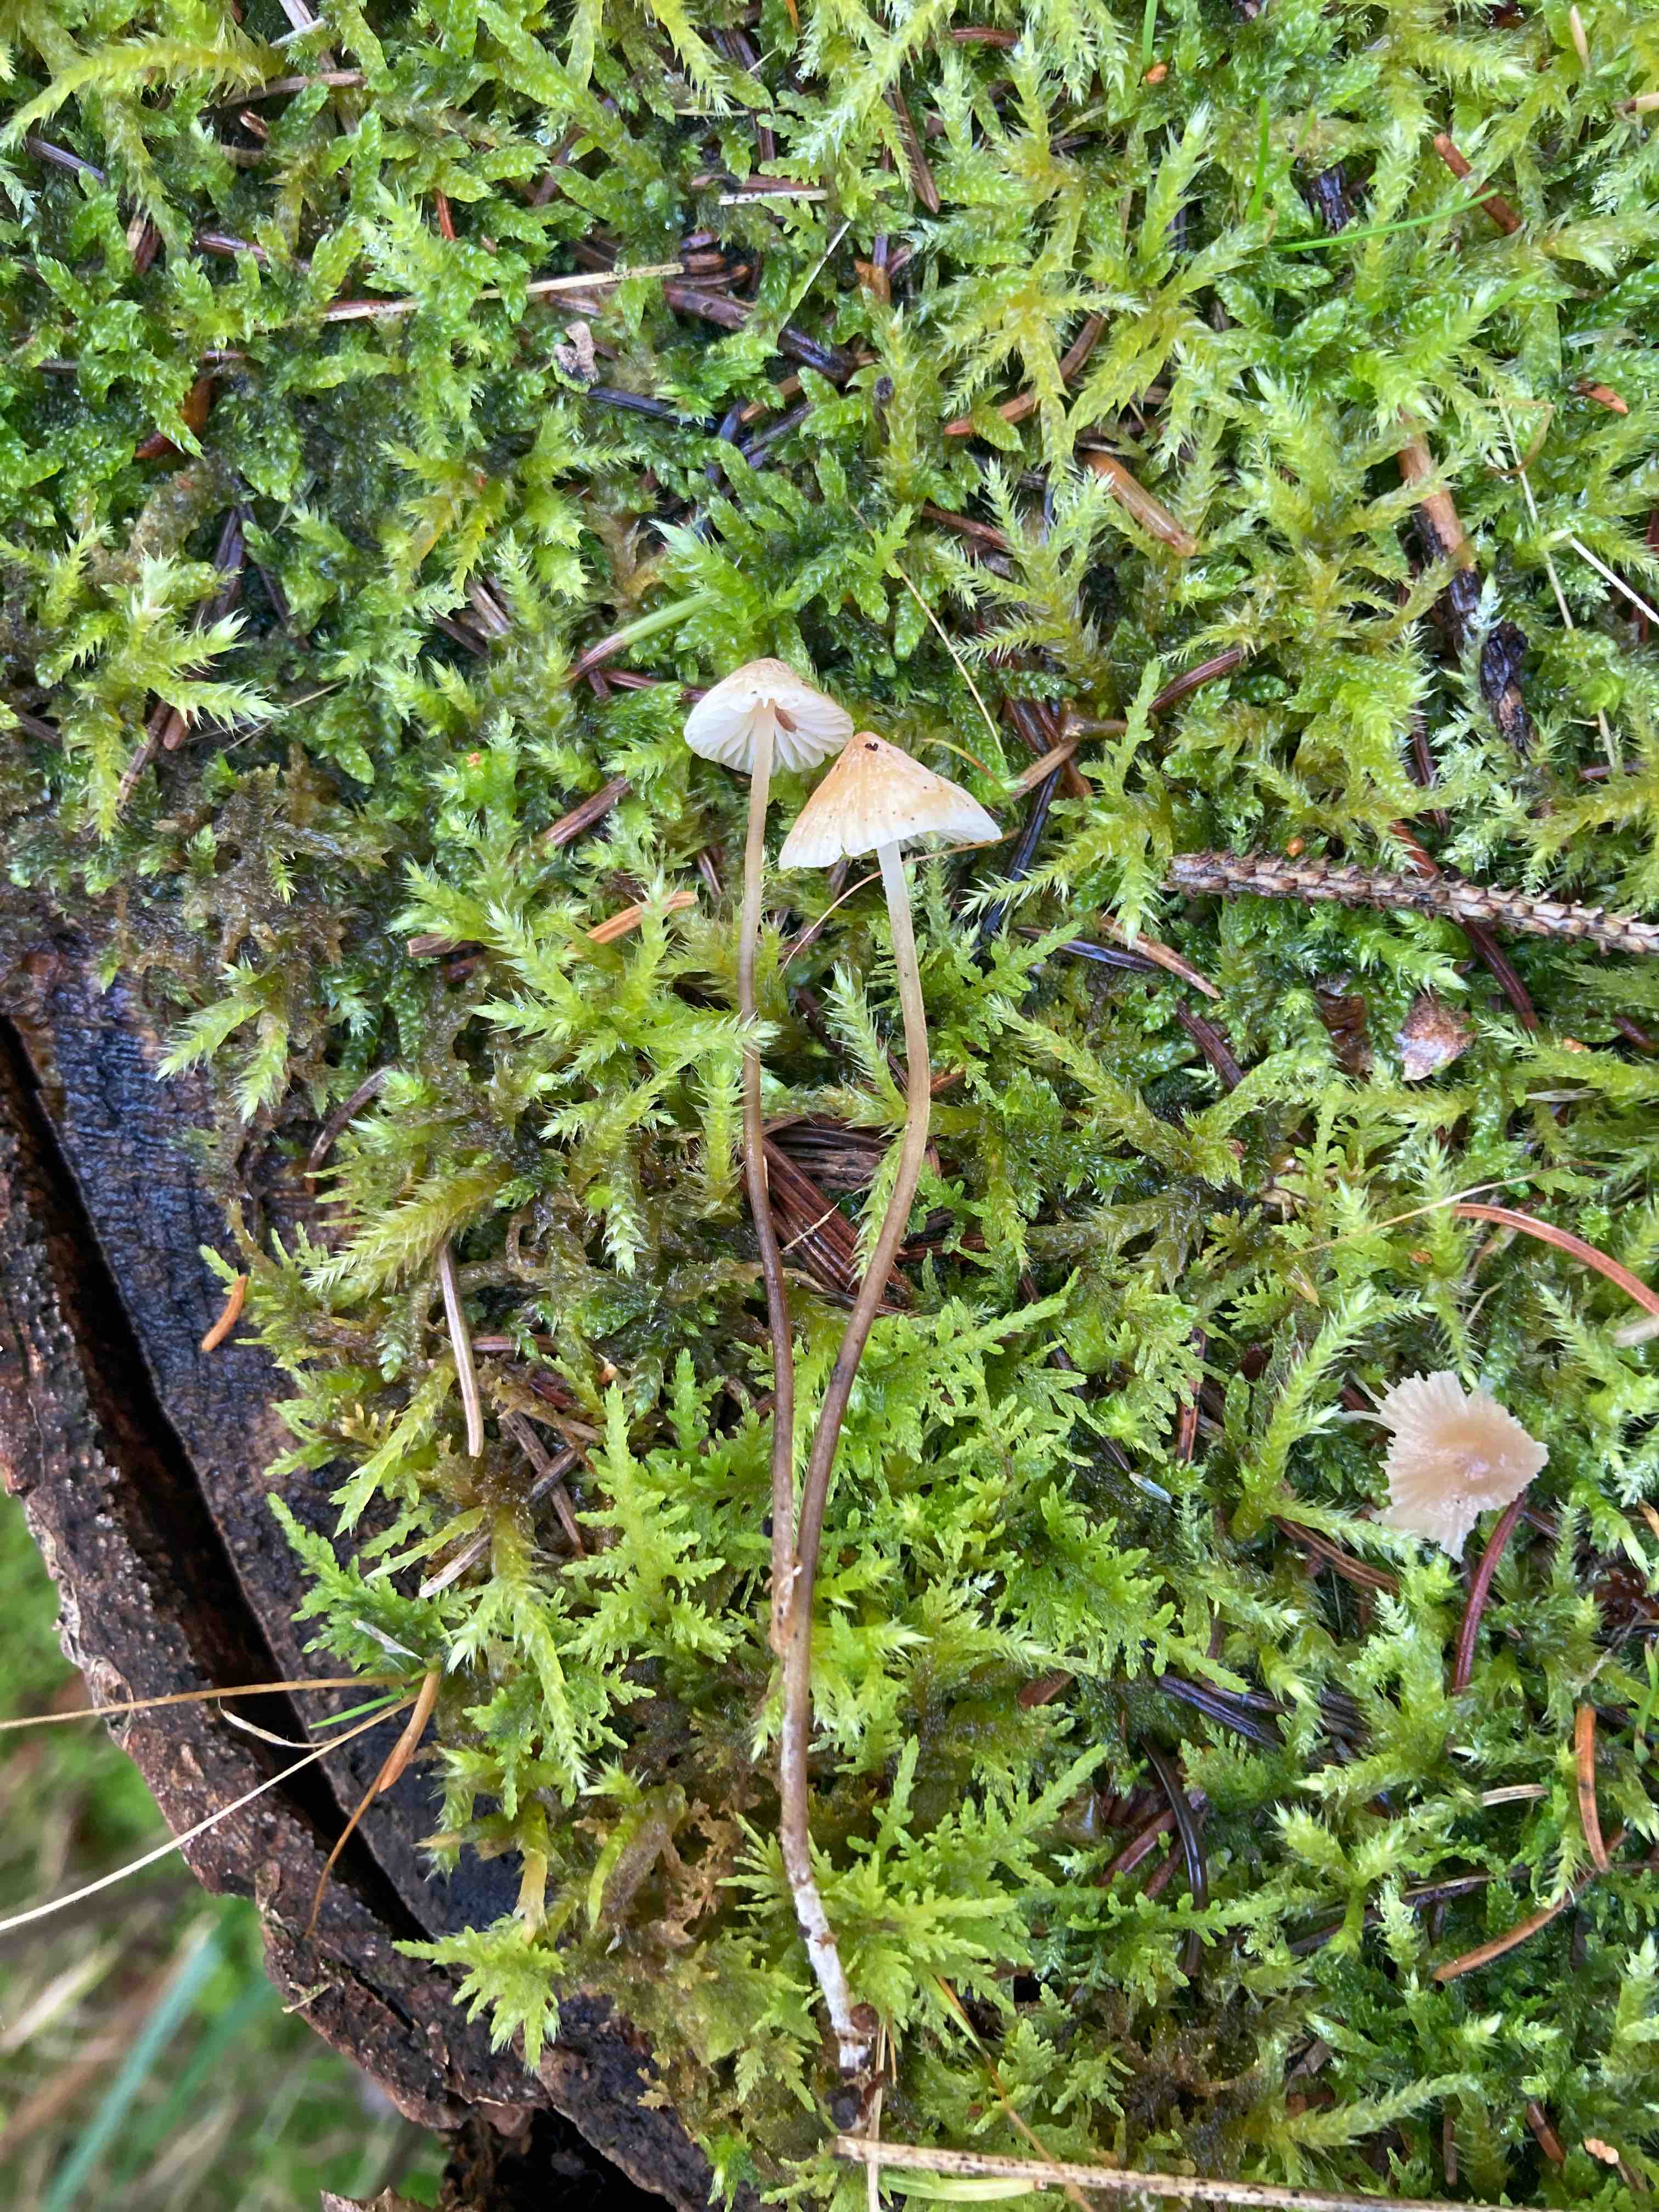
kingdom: Fungi
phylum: Basidiomycota
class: Agaricomycetes
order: Agaricales
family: Mycenaceae
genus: Atheniella
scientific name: Atheniella leptophylla
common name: abrikos-huesvamp
